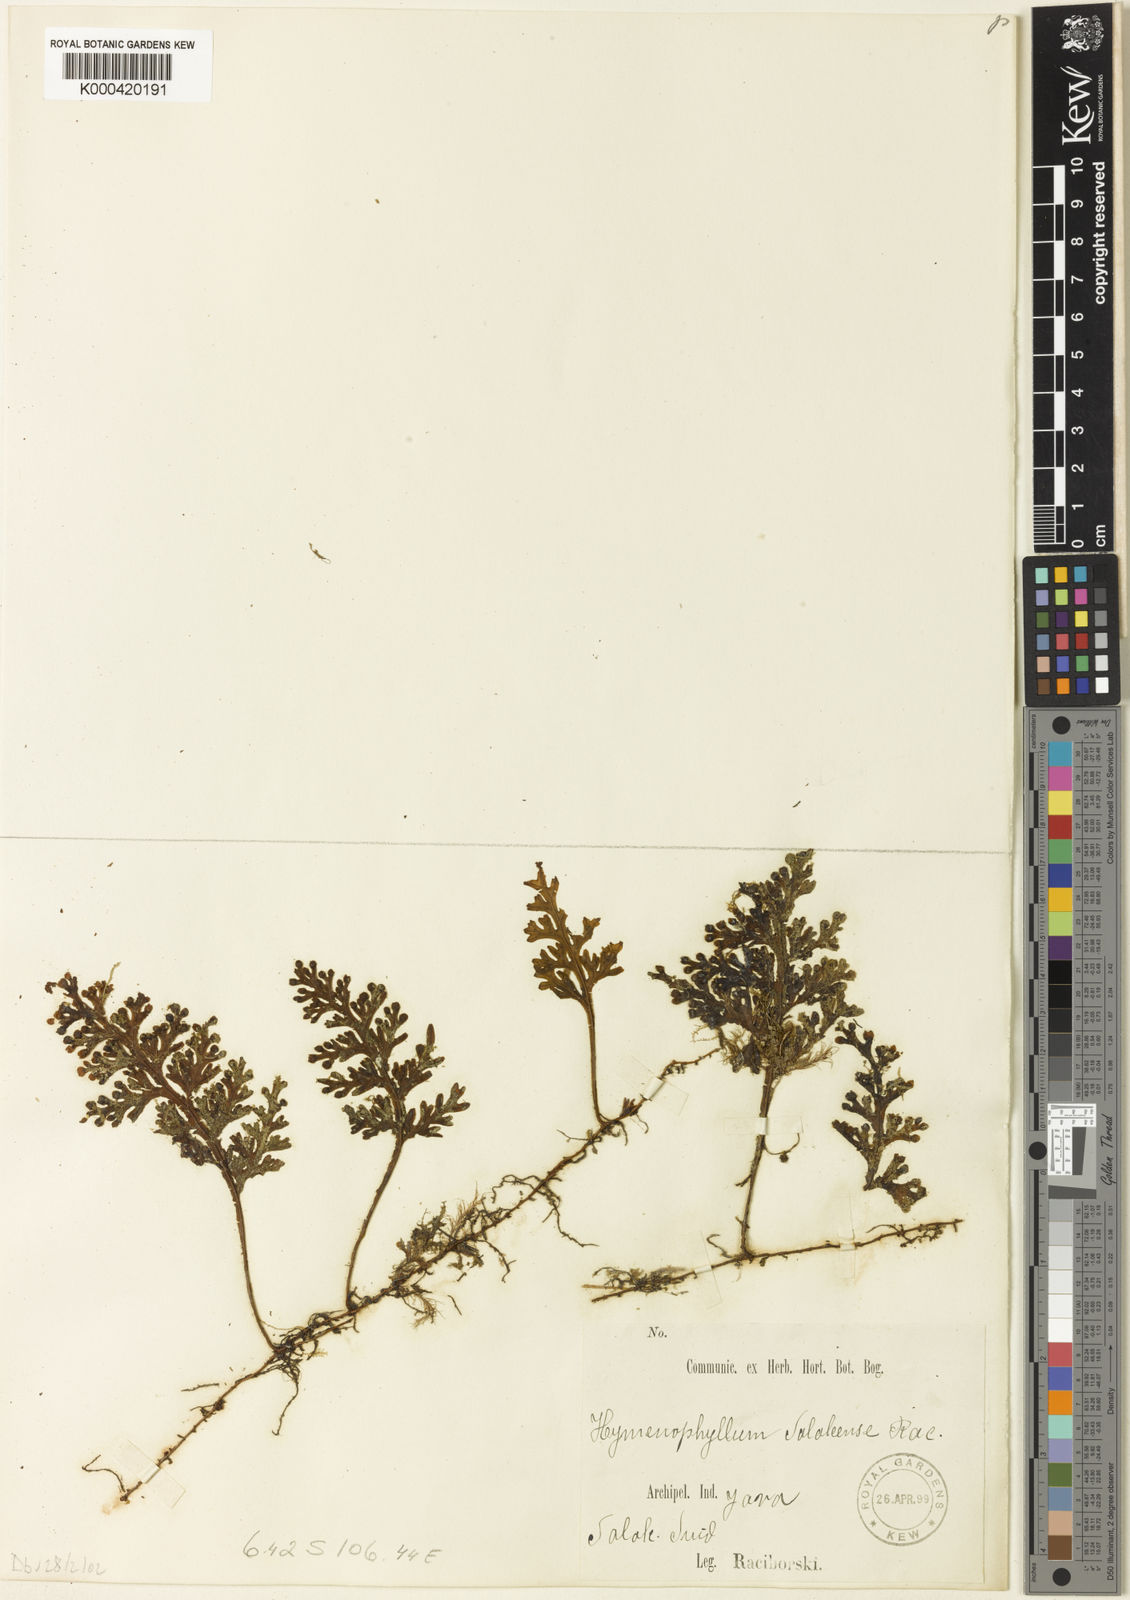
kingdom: Plantae
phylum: Tracheophyta
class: Polypodiopsida
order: Hymenophyllales
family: Hymenophyllaceae
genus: Hymenophyllum
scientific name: Hymenophyllum salakense
